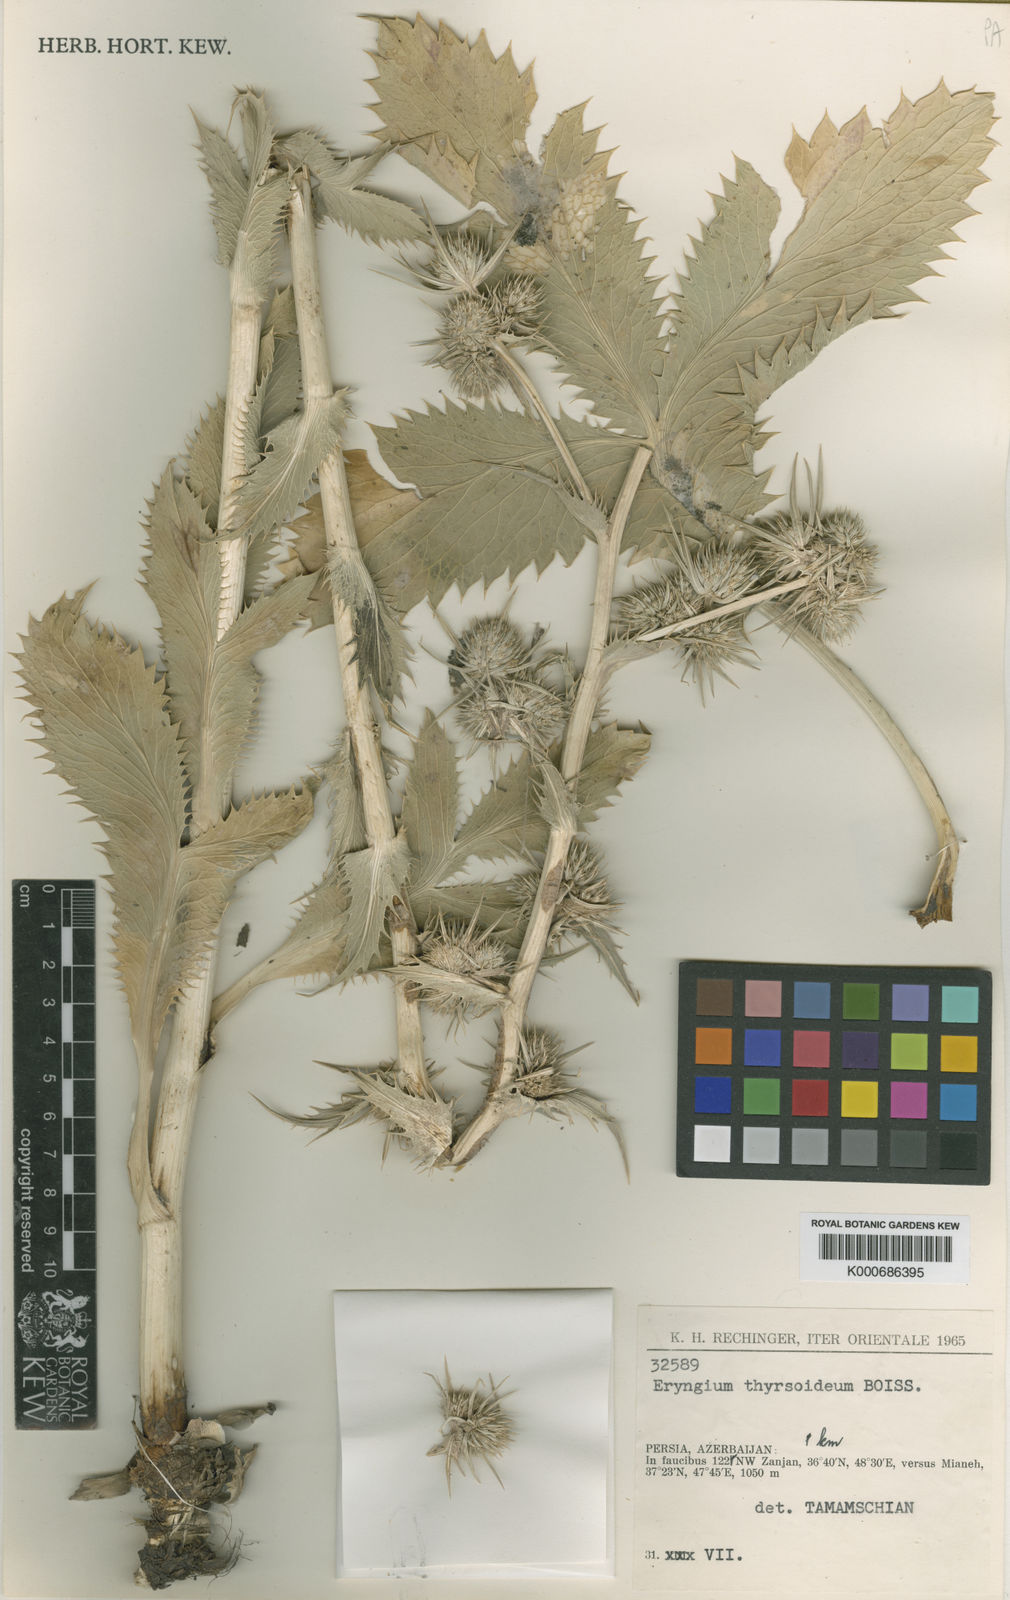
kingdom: Plantae
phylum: Tracheophyta
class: Magnoliopsida
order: Apiales
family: Apiaceae
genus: Eryngium
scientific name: Eryngium thyrsoideum
